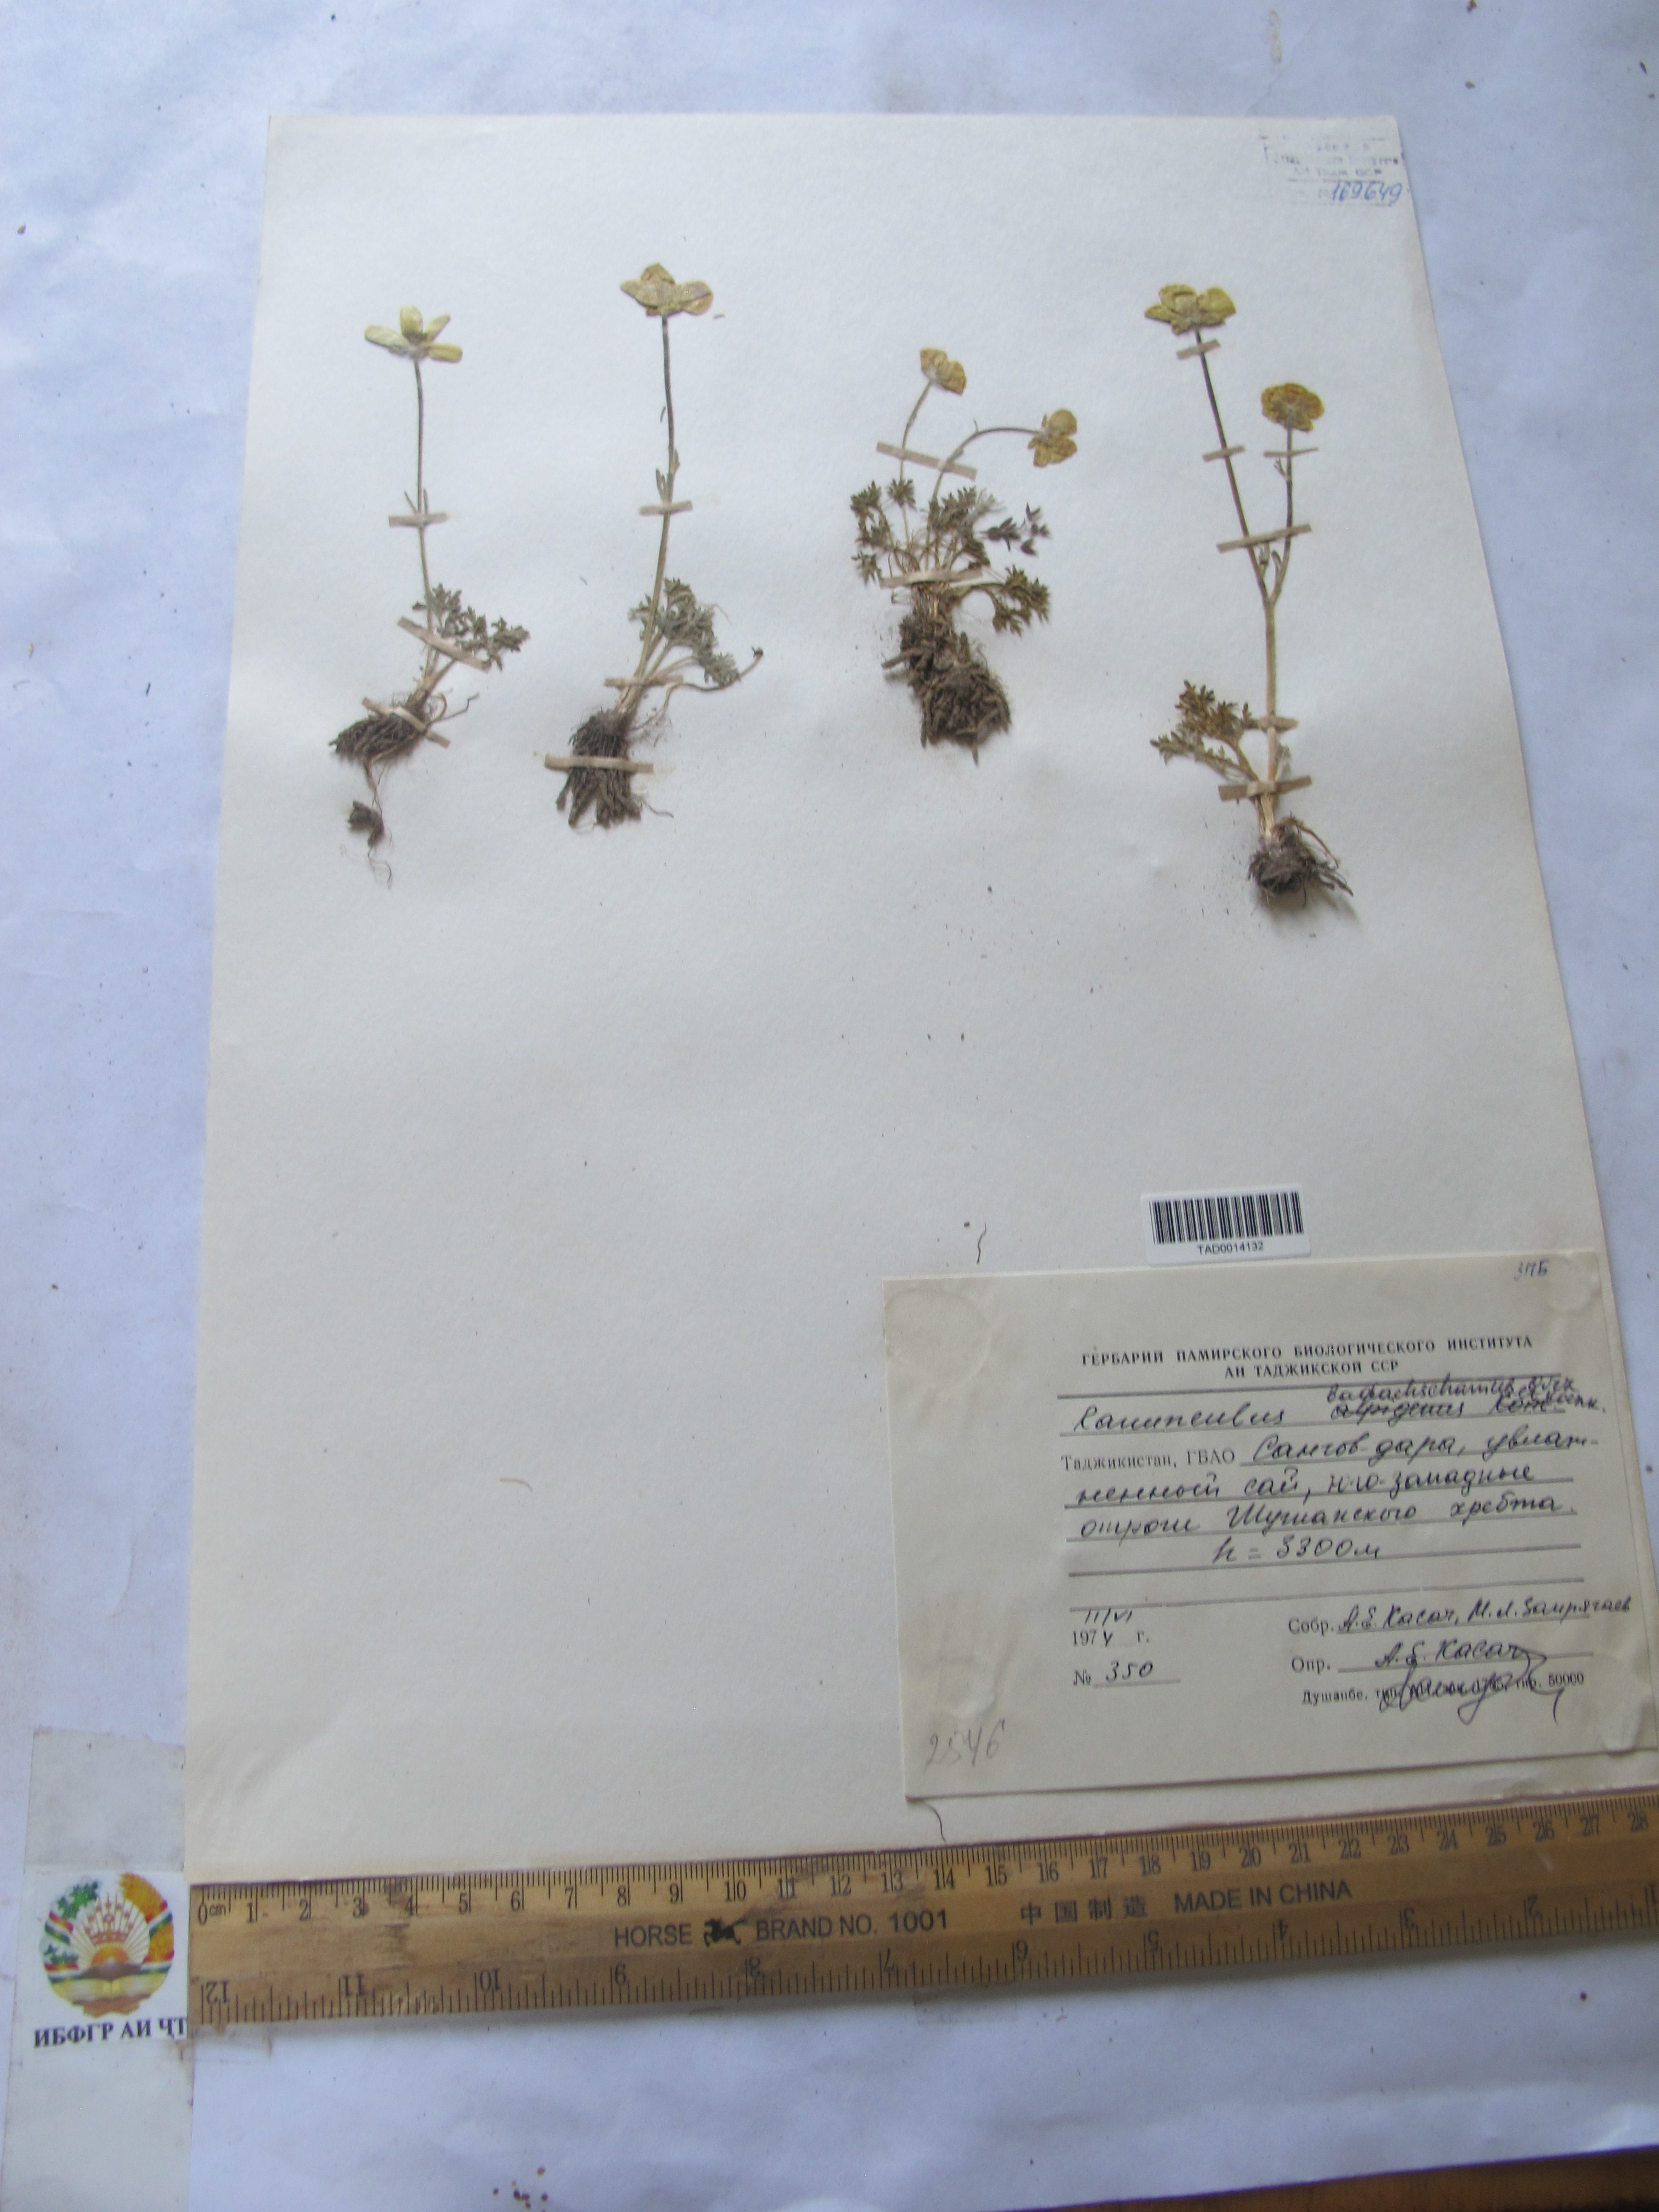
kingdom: Plantae
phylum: Tracheophyta
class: Magnoliopsida
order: Ranunculales
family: Ranunculaceae
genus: Ranunculus
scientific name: Ranunculus badachschanicus
